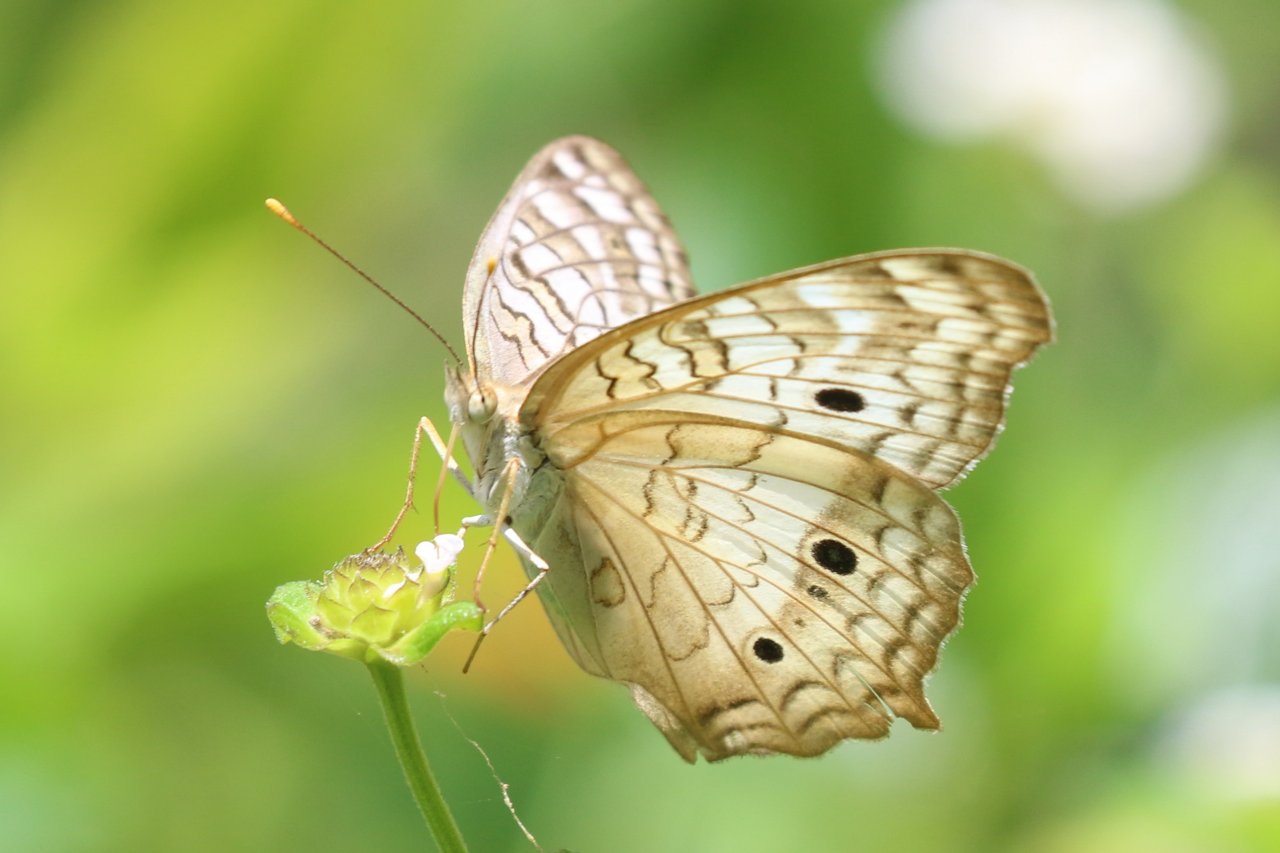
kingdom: Animalia
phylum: Arthropoda
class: Insecta
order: Lepidoptera
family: Nymphalidae
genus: Anartia
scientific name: Anartia jatrophae
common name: White Peacock
